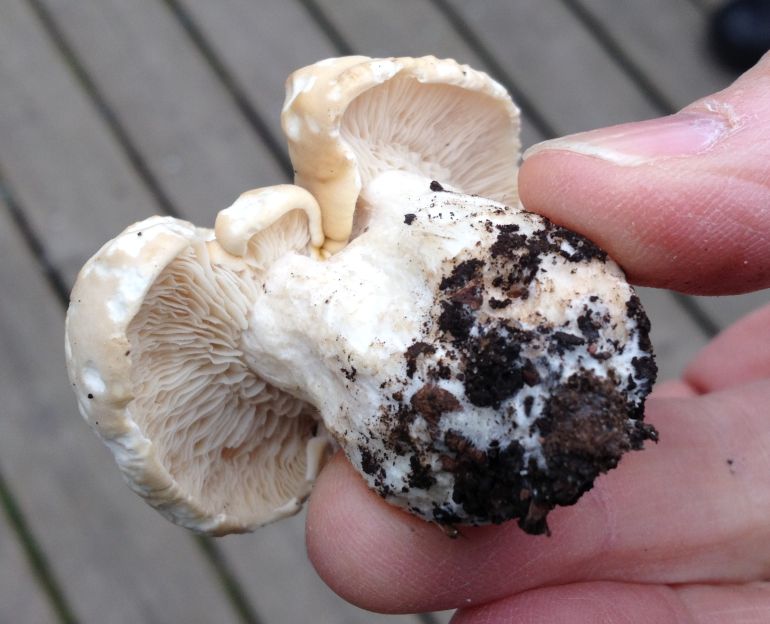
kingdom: Fungi
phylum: Basidiomycota
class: Agaricomycetes
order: Agaricales
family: Lyophyllaceae
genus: Calocybe
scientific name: Calocybe gambosa
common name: vårmusseron
